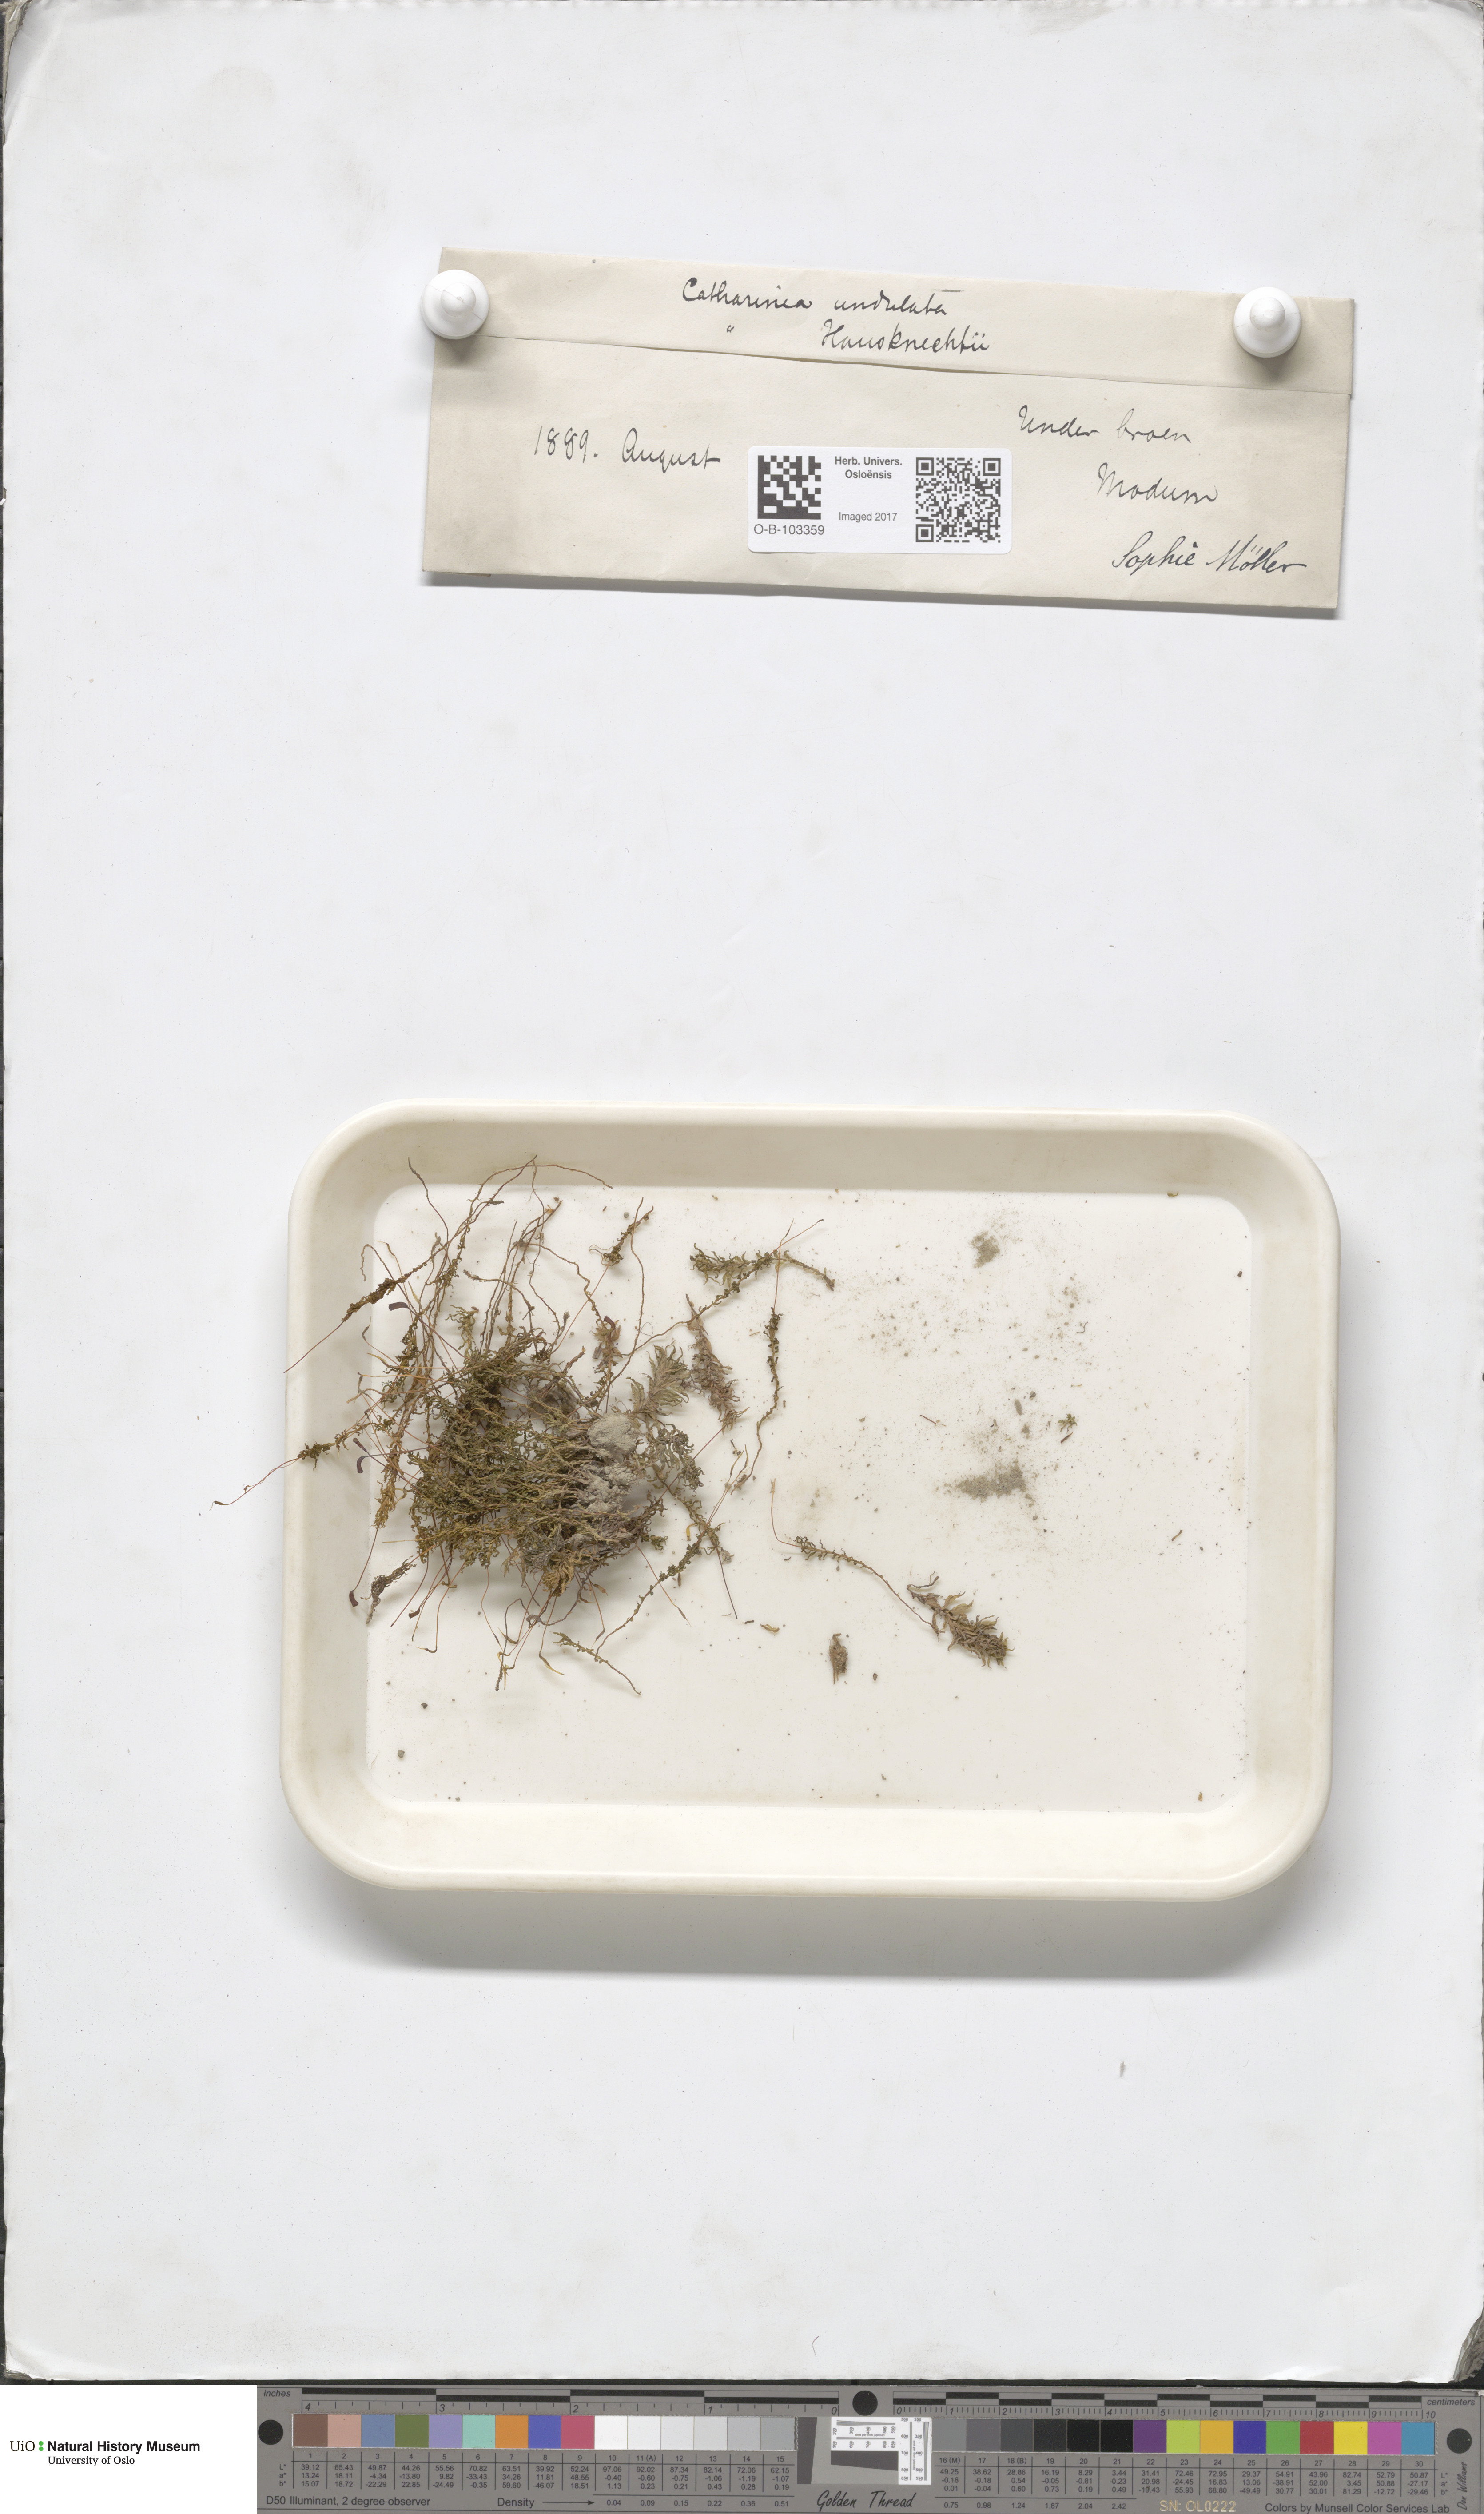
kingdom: Plantae
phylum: Bryophyta
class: Polytrichopsida
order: Polytrichales
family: Polytrichaceae
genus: Atrichum
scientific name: Atrichum undulatum
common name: Common smoothcap
